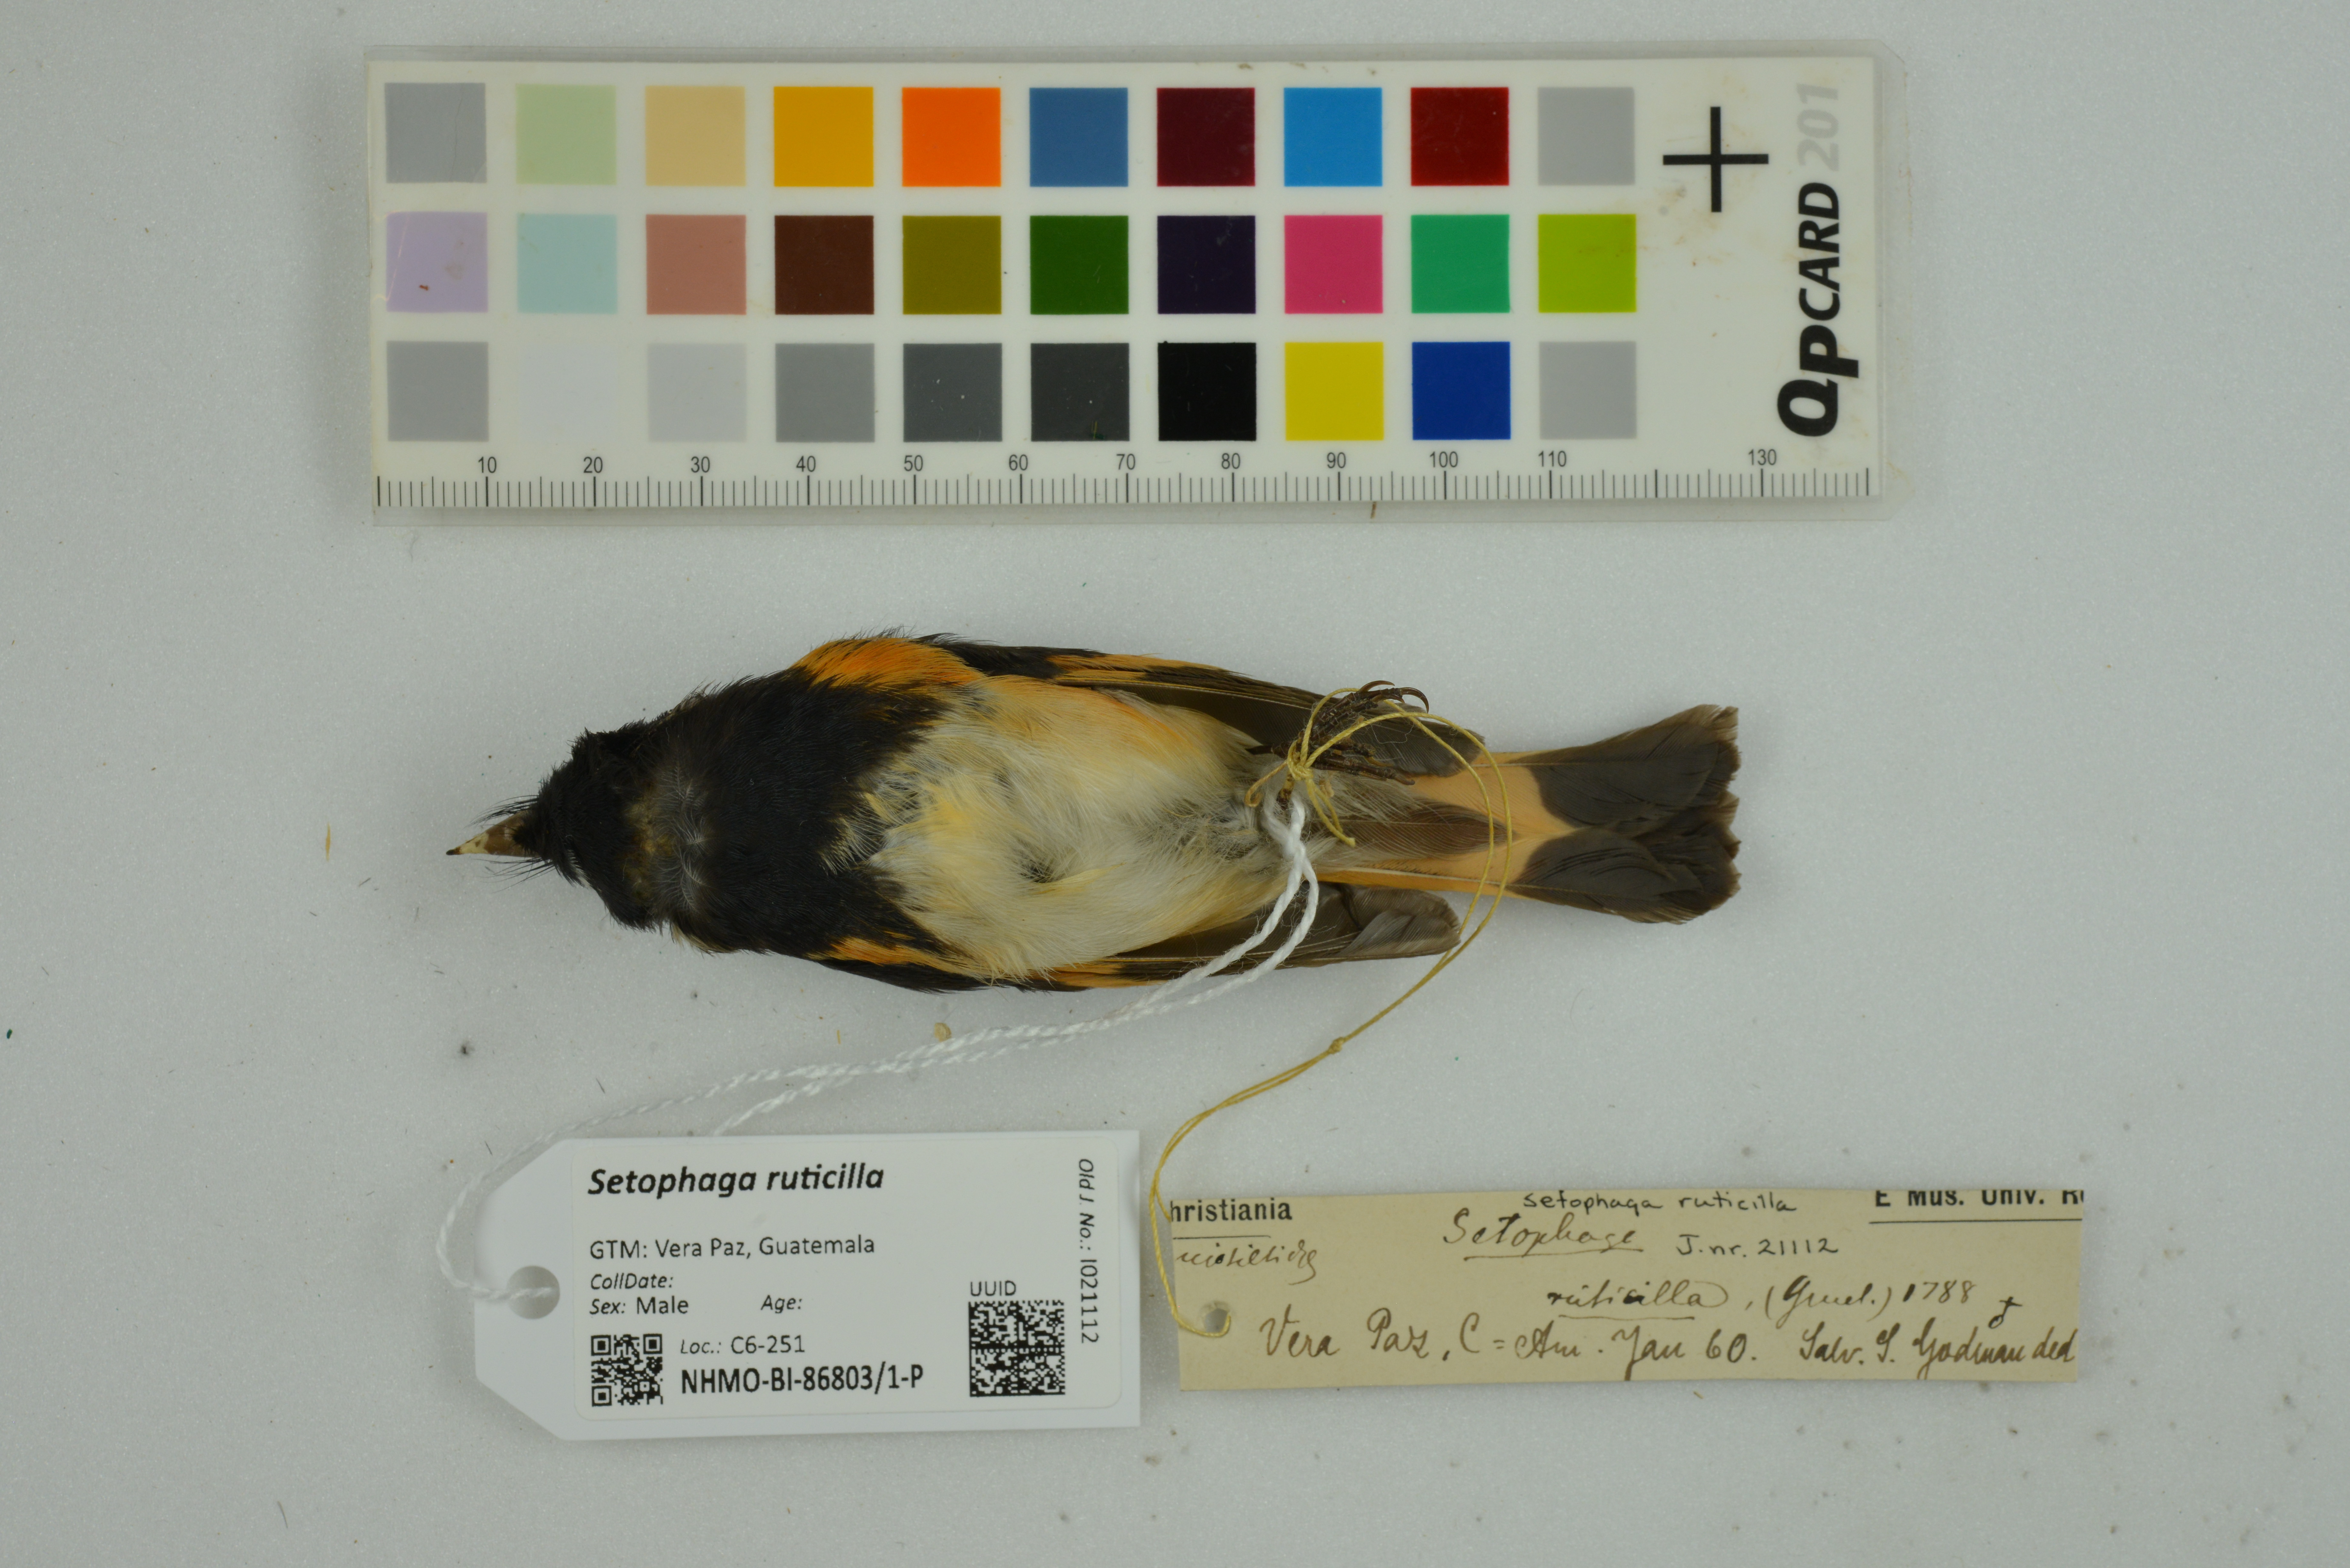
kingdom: Animalia
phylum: Chordata
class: Aves
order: Passeriformes
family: Parulidae
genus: Setophaga
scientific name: Setophaga ruticilla
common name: American redstart
